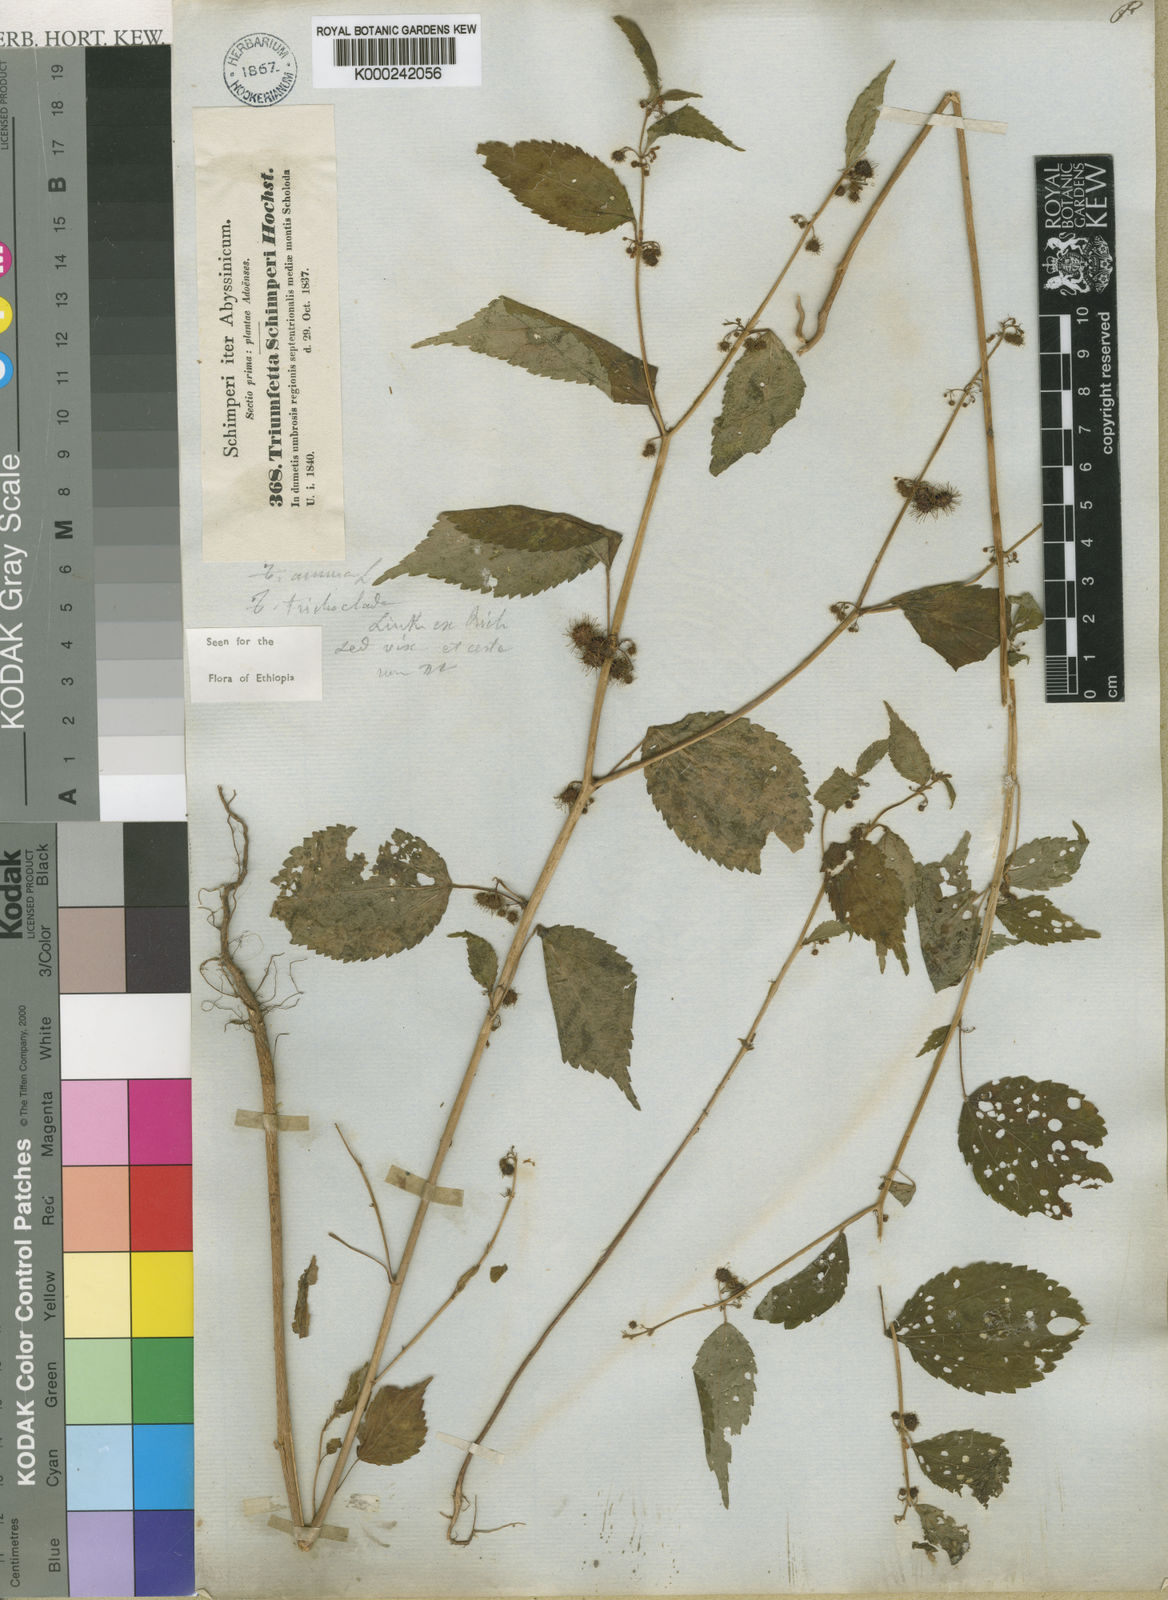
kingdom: Plantae
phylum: Tracheophyta
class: Magnoliopsida
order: Malvales
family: Malvaceae
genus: Triumfetta
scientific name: Triumfetta annua
